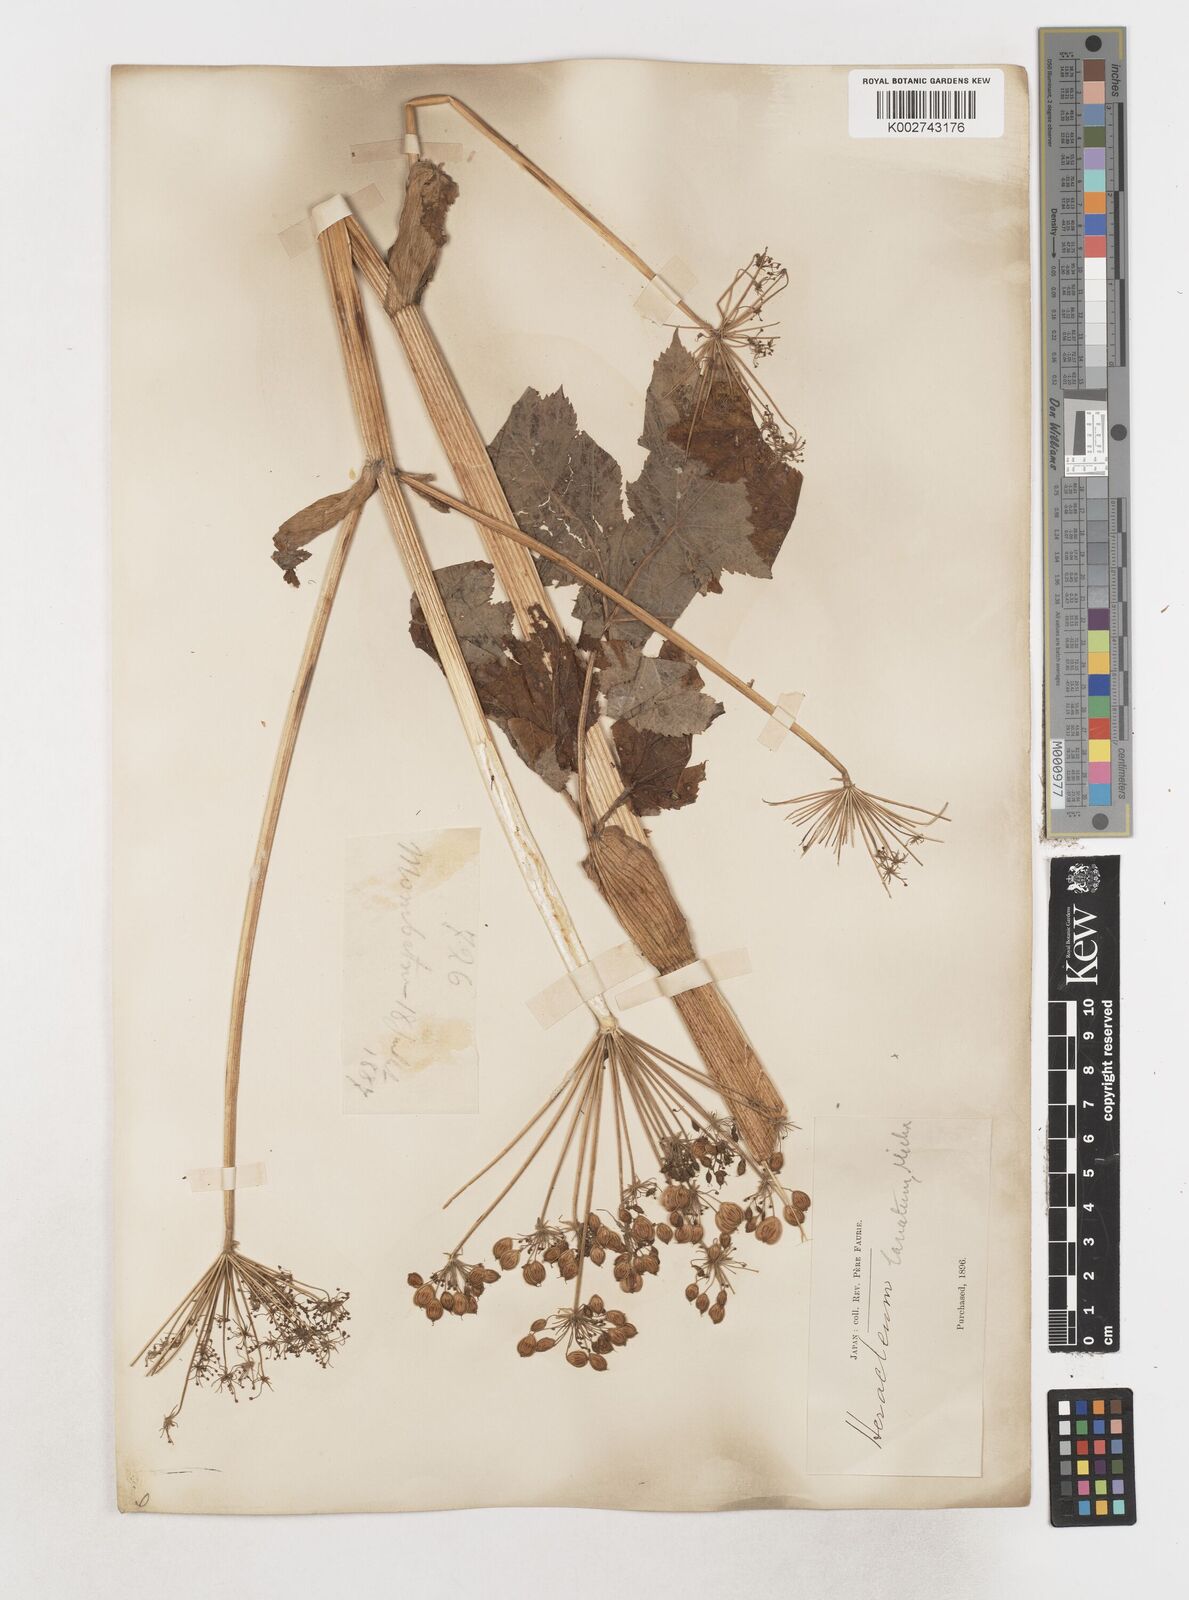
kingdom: Plantae
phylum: Tracheophyta
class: Magnoliopsida
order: Apiales
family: Apiaceae
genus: Heracleum
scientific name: Heracleum maximum
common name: American cow parsnip
